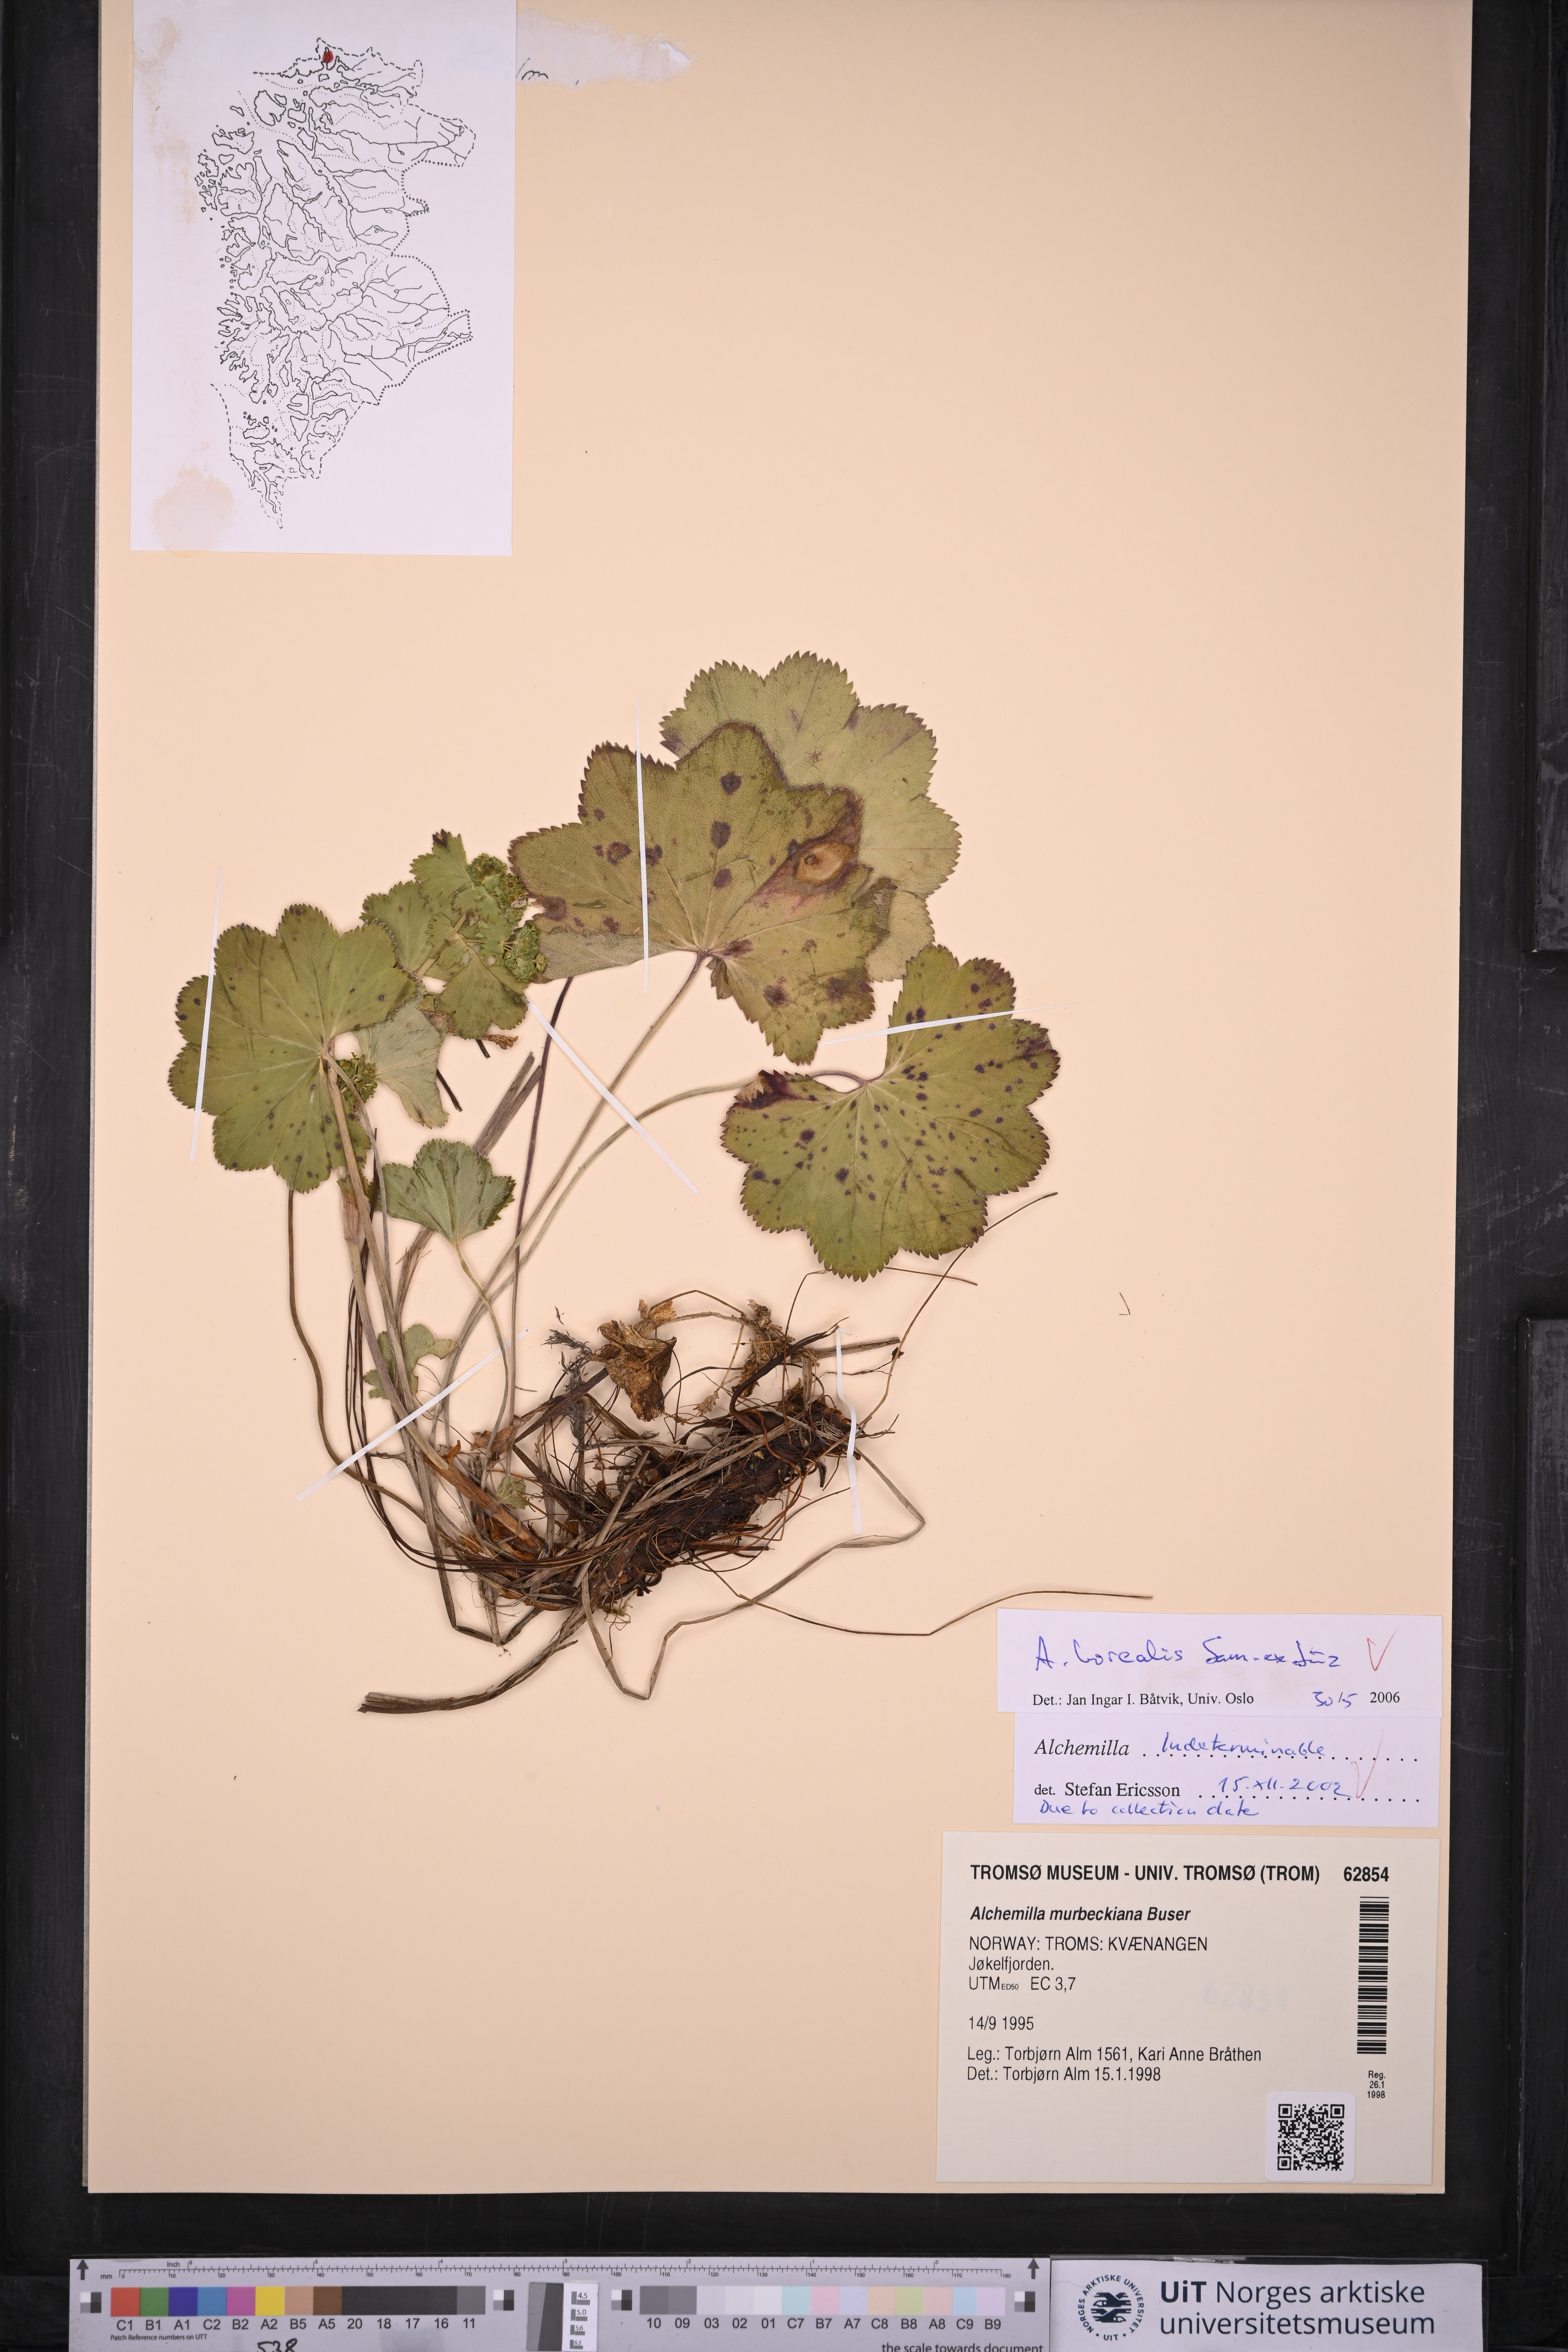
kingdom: Plantae
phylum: Tracheophyta
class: Magnoliopsida
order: Rosales
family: Rosaceae
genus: Alchemilla
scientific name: Alchemilla borealis
